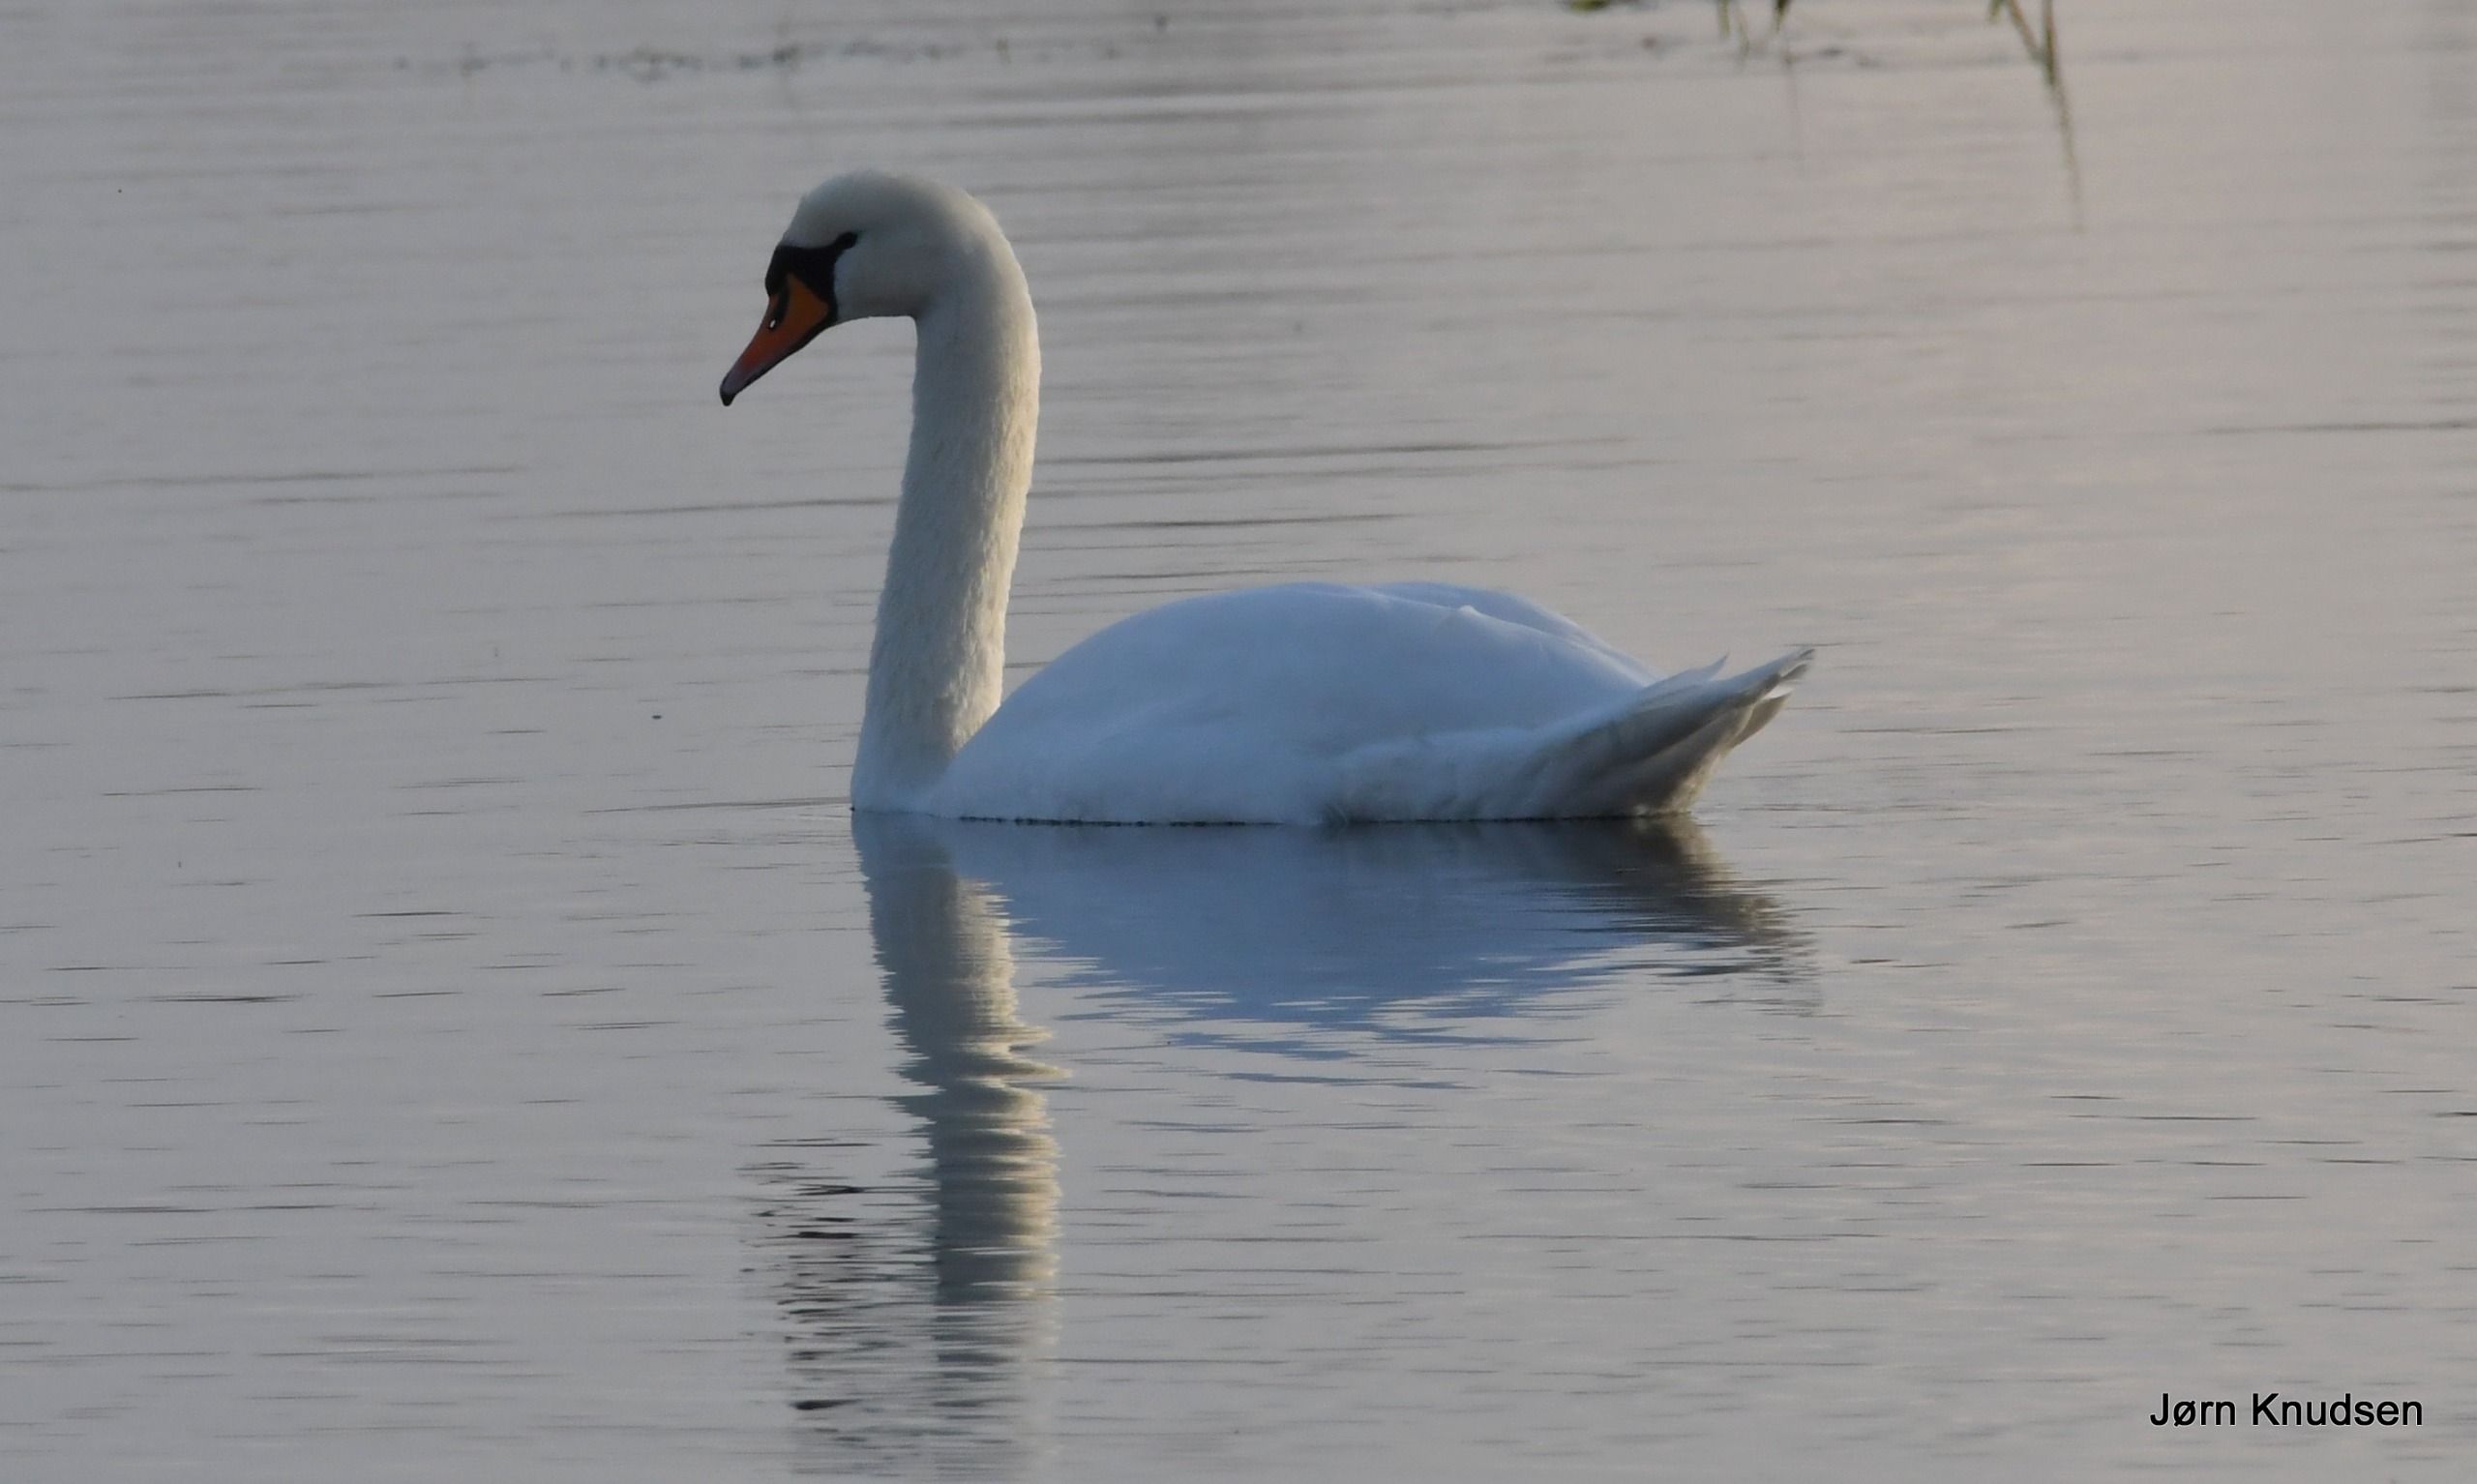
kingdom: Animalia
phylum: Chordata
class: Aves
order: Anseriformes
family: Anatidae
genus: Cygnus
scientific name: Cygnus olor
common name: Knopsvane
